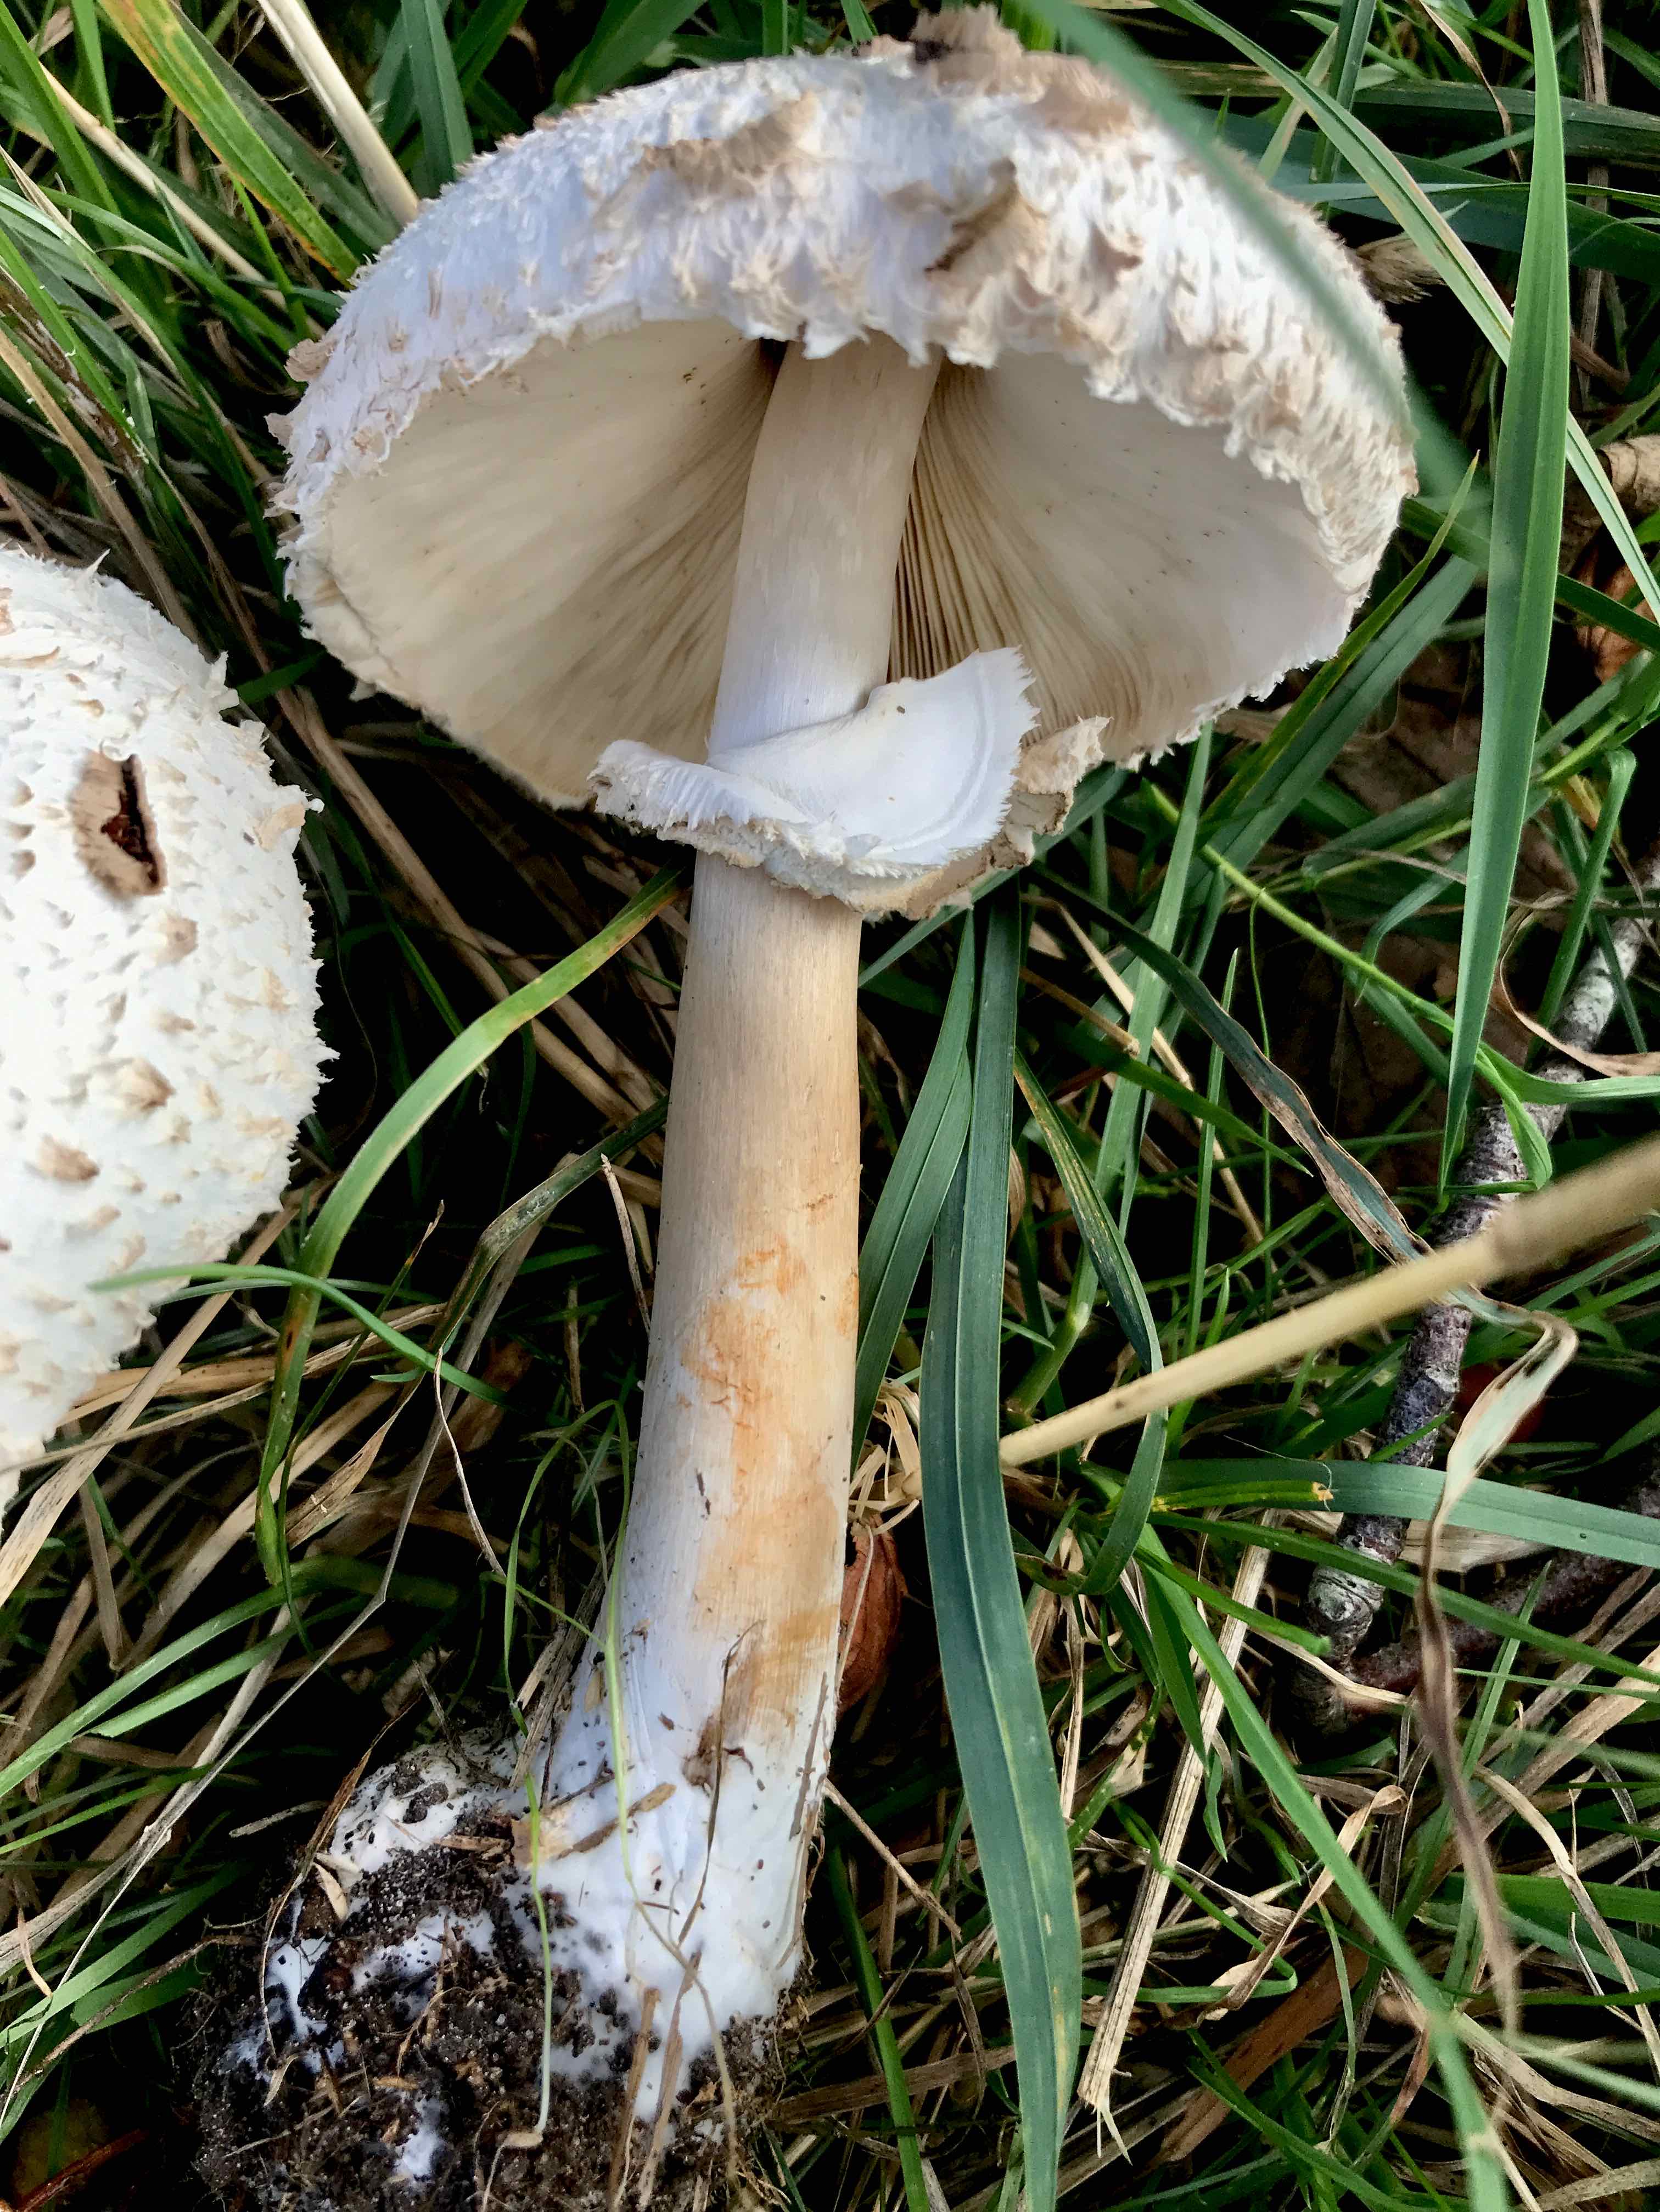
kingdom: Fungi
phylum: Basidiomycota
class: Agaricomycetes
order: Agaricales
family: Agaricaceae
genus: Chlorophyllum
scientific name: Chlorophyllum brunneum
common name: giftig rabarberhat
